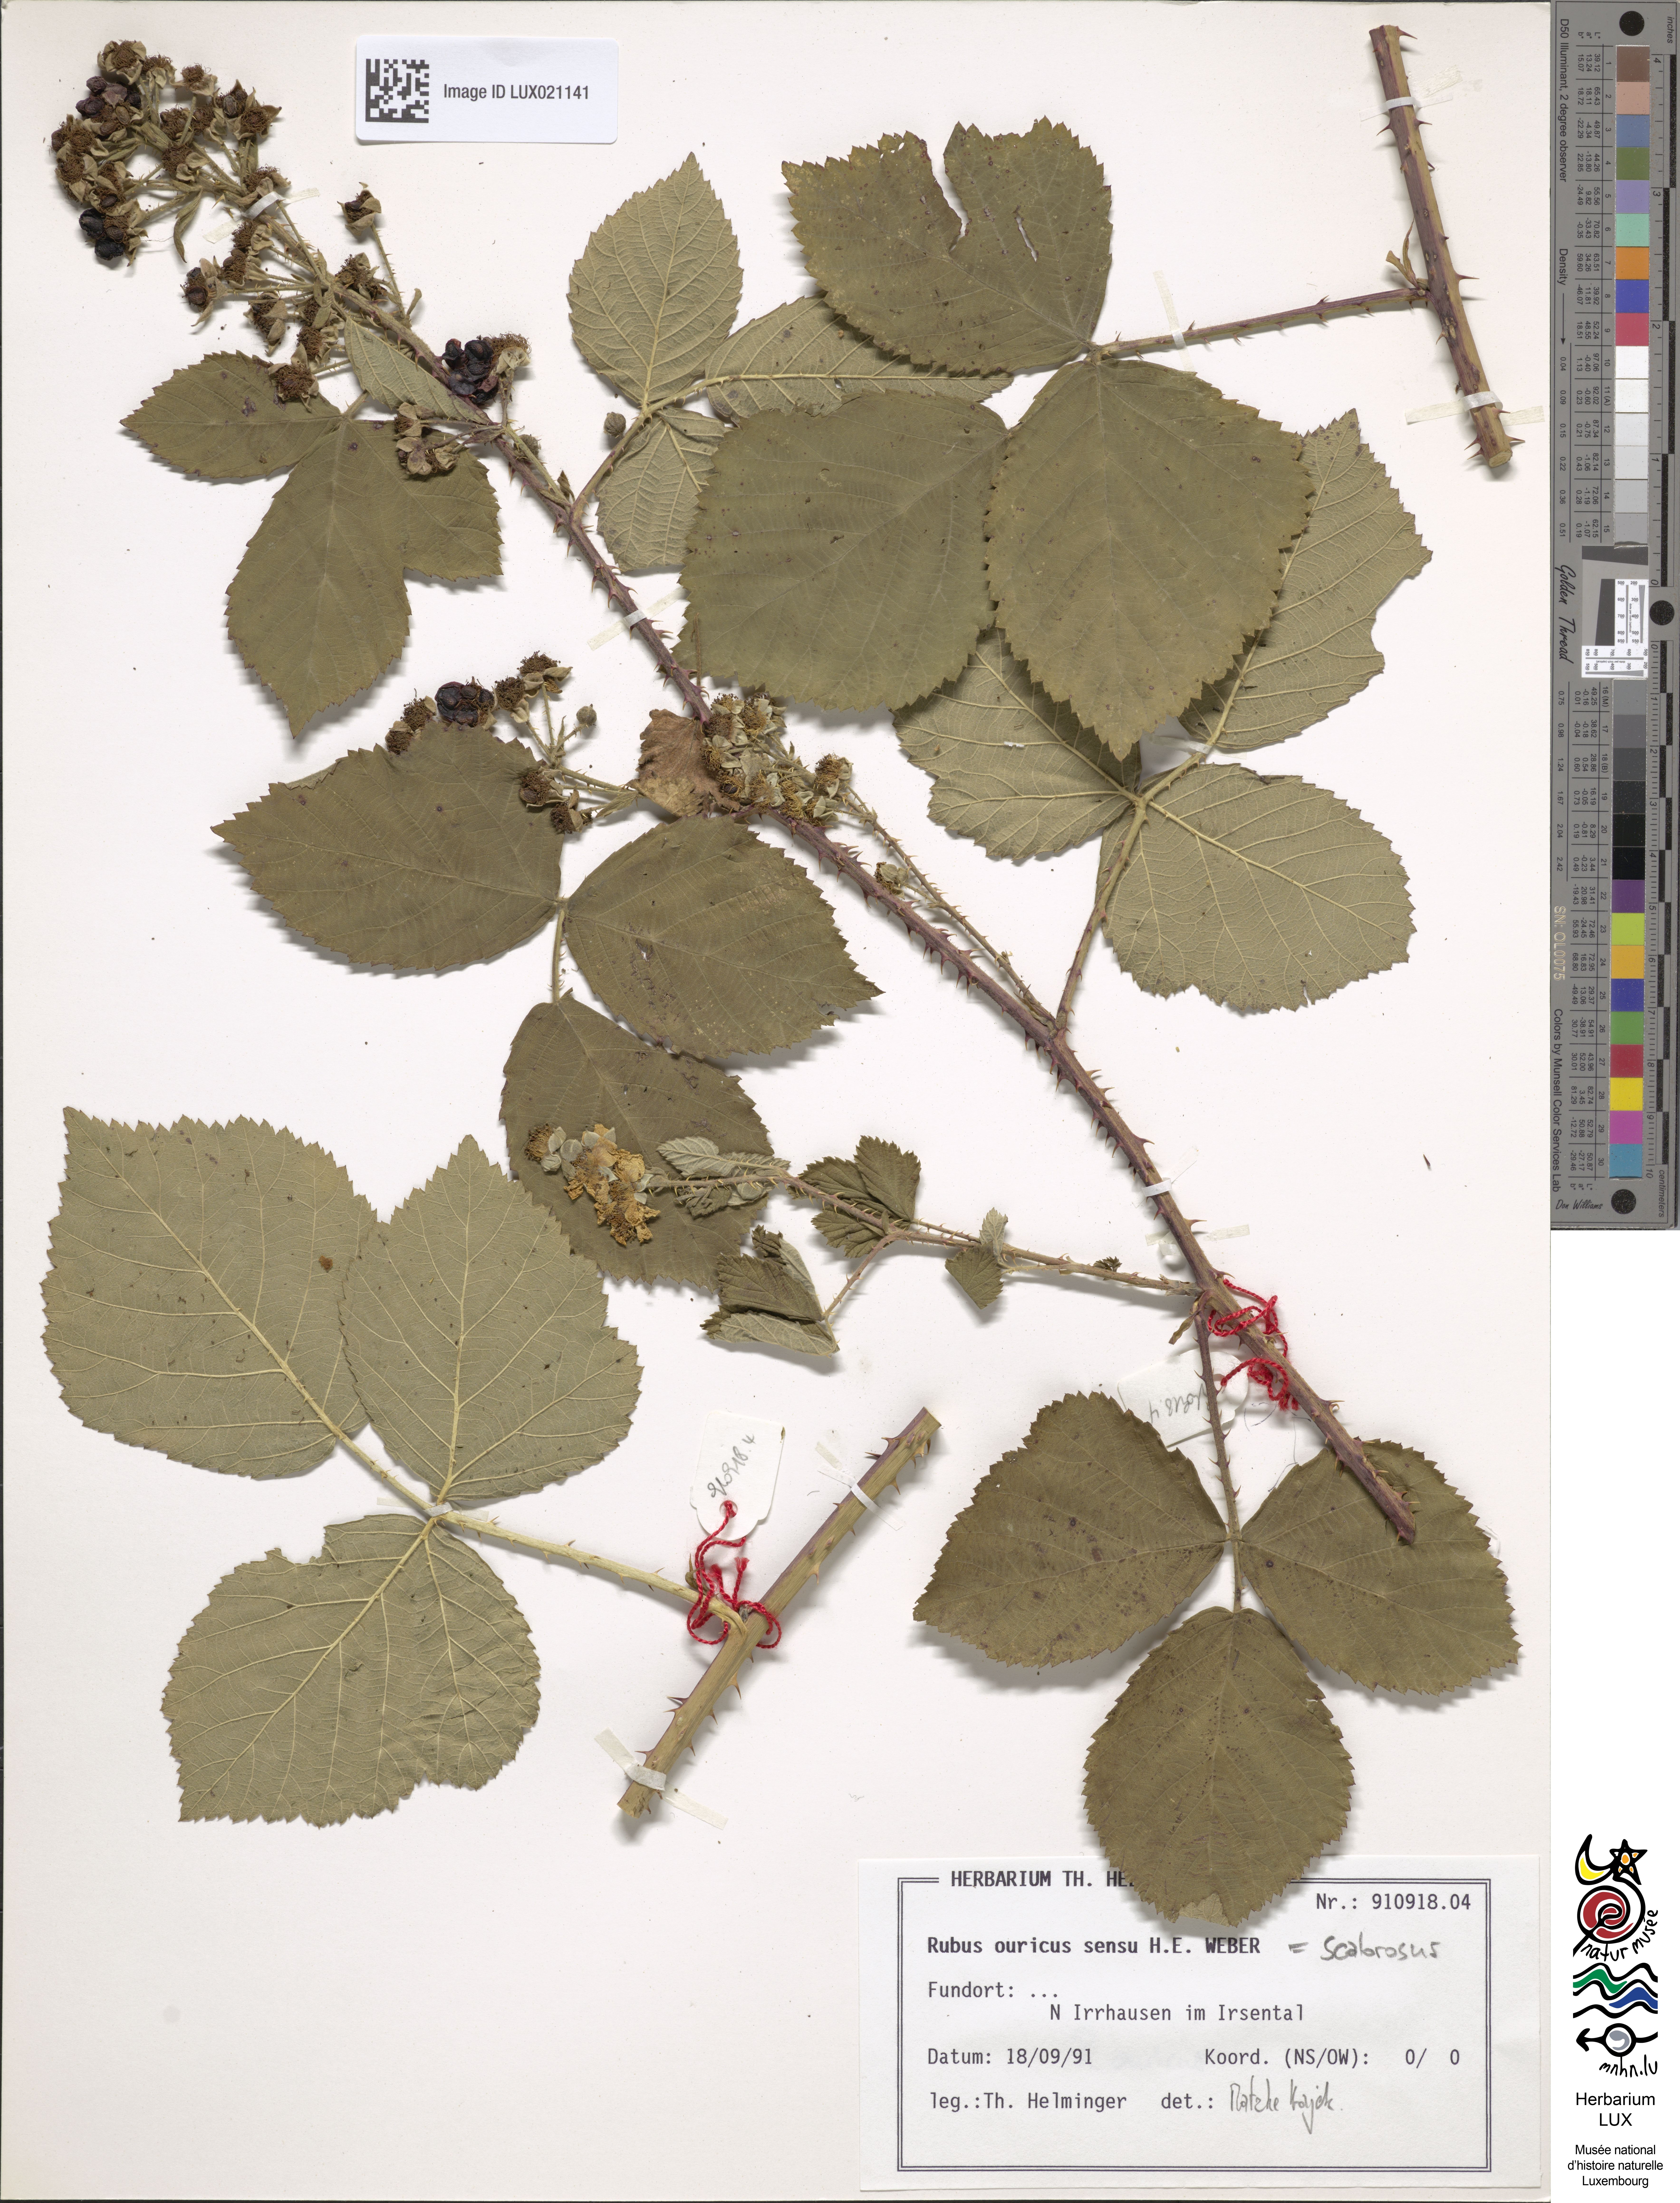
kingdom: Plantae
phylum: Tracheophyta
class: Magnoliopsida
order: Rosales
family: Rosaceae
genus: Rubus
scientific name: Rubus scabrosus
